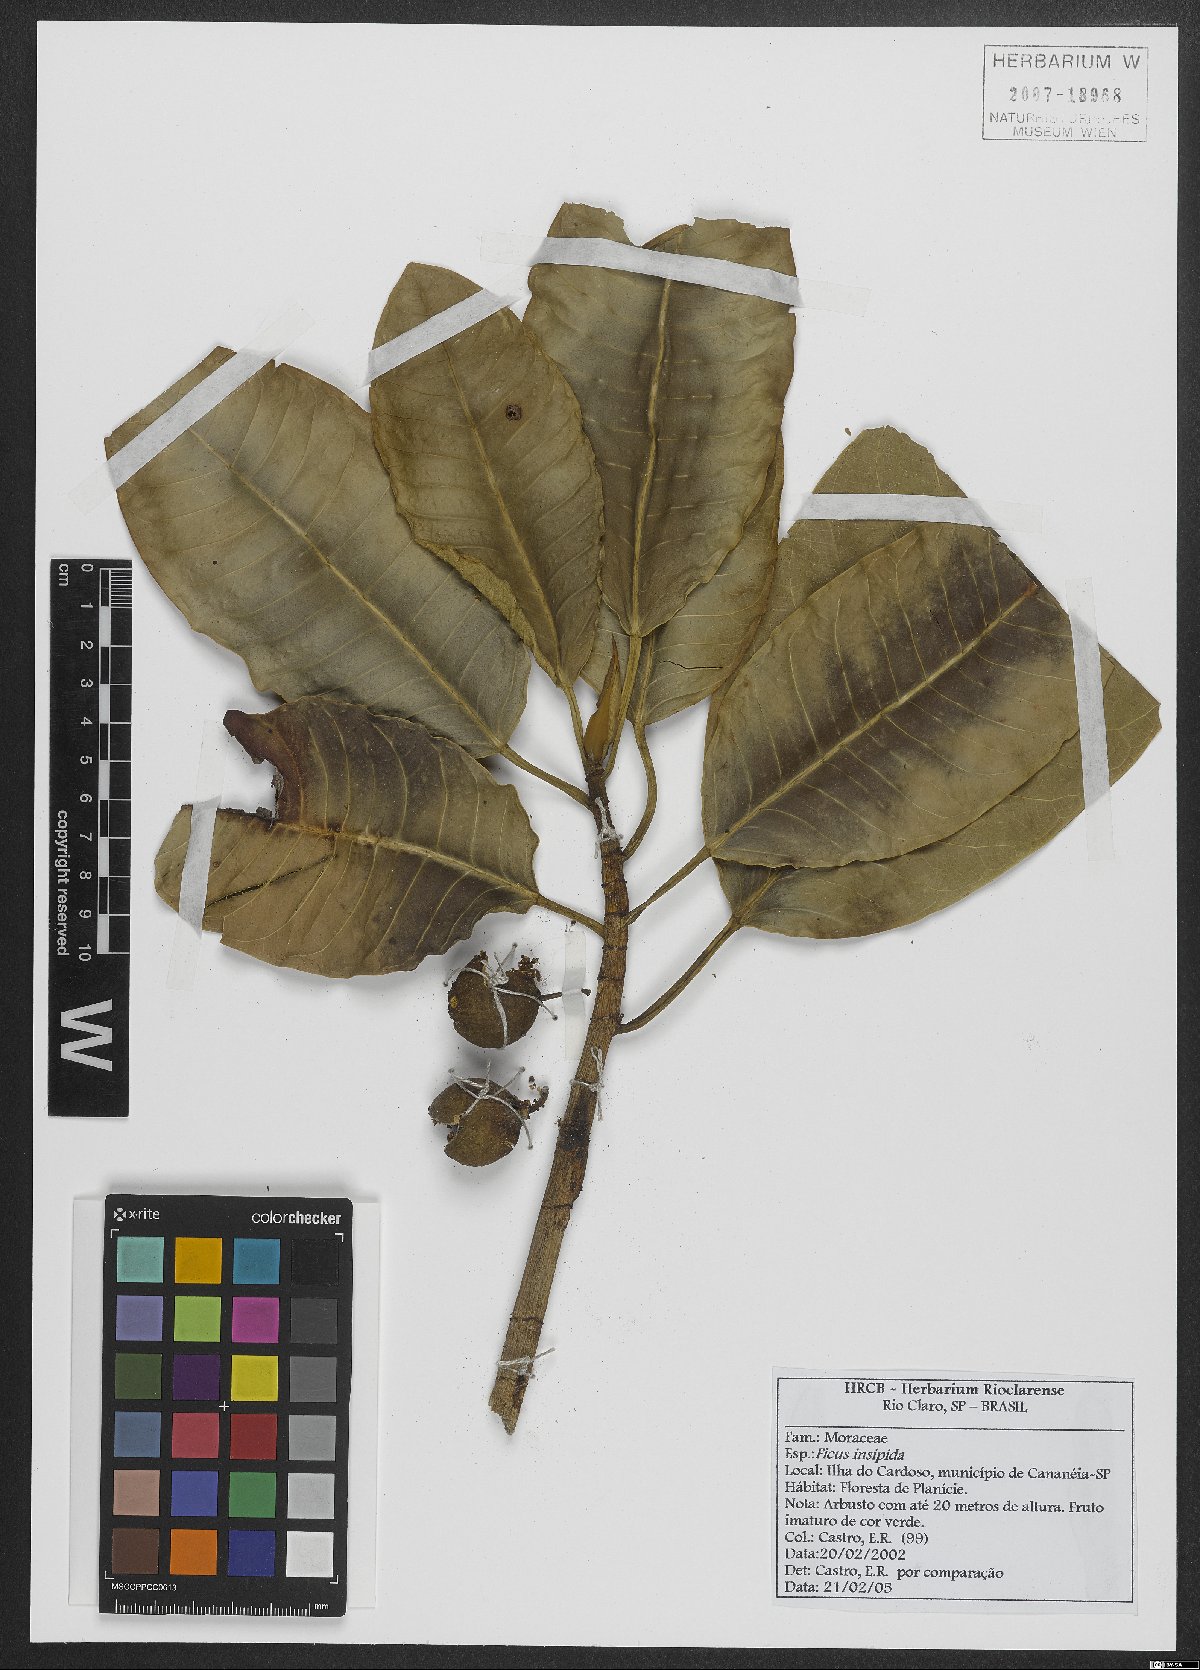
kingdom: Plantae
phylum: Tracheophyta
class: Magnoliopsida
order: Rosales
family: Moraceae
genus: Ficus
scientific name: Ficus insipida
